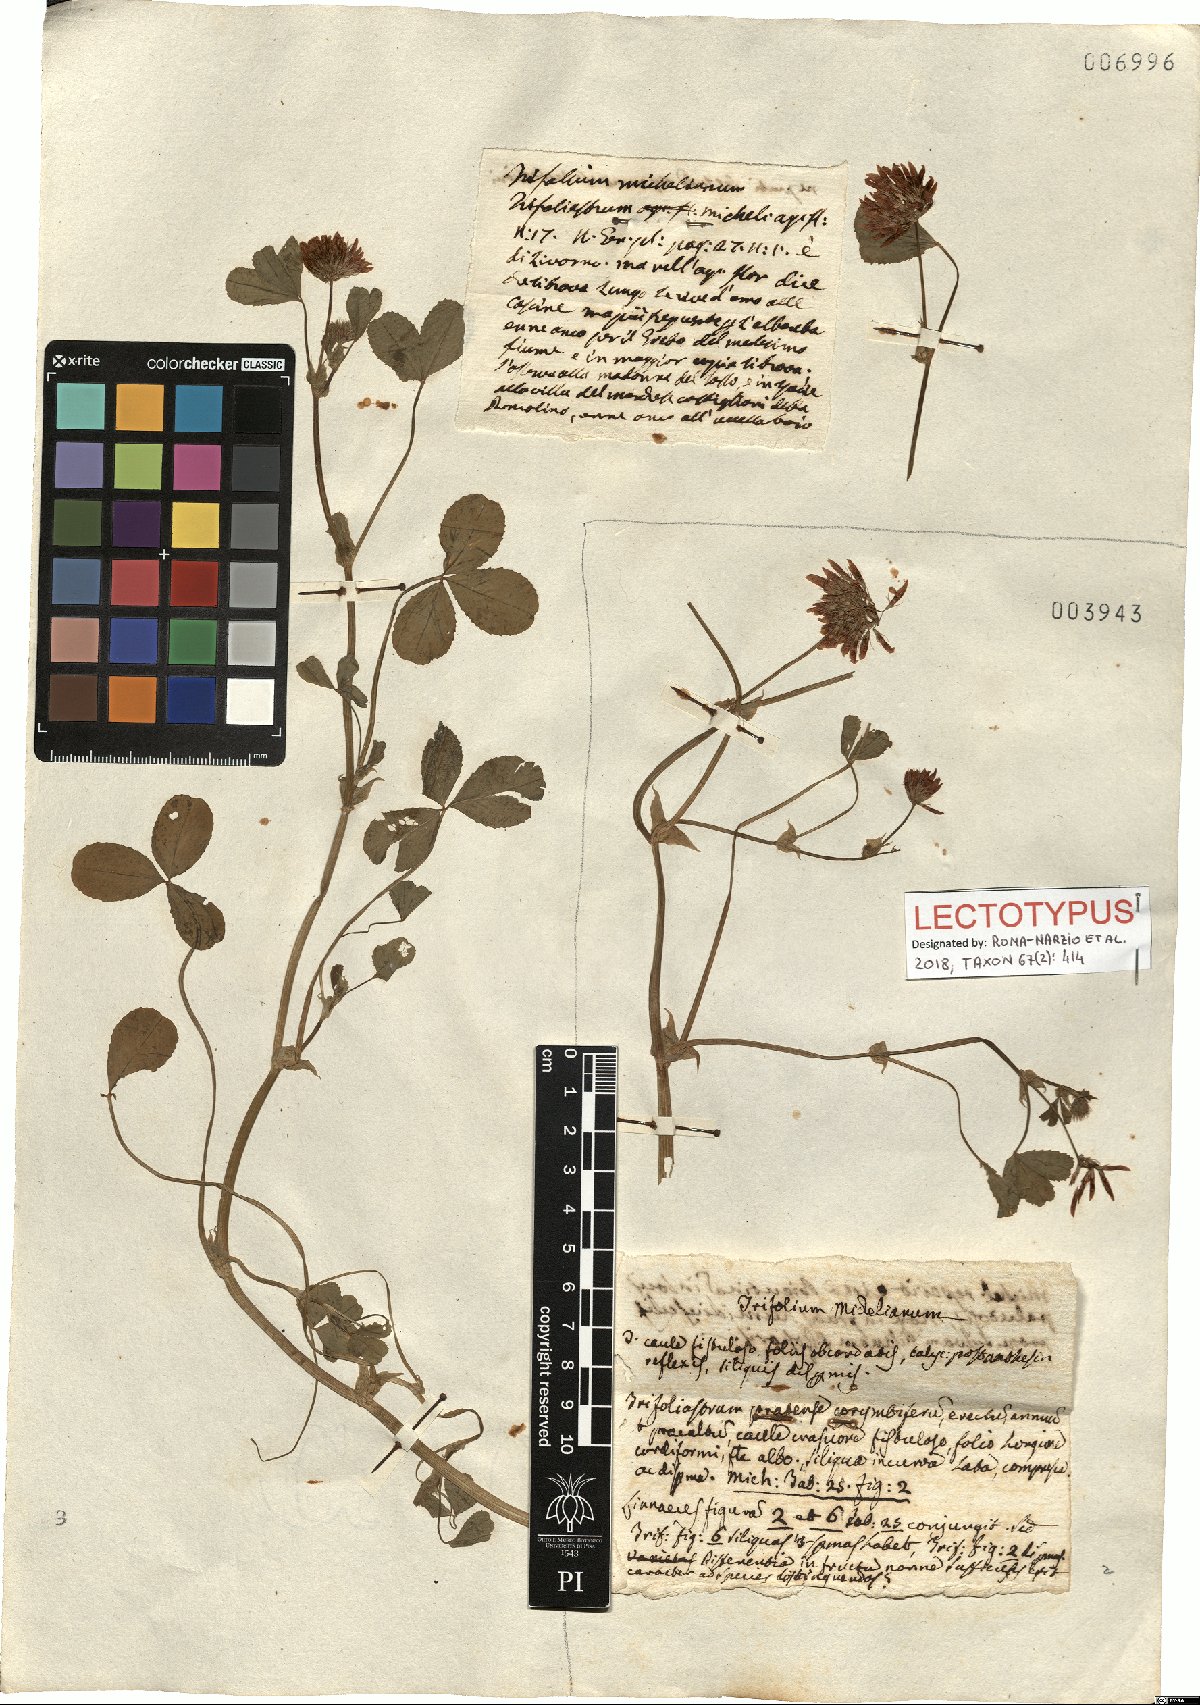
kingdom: Plantae
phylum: Tracheophyta
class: Magnoliopsida
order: Fabales
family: Fabaceae
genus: Trifolium
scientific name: Trifolium michelianum
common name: Bigflower clover
